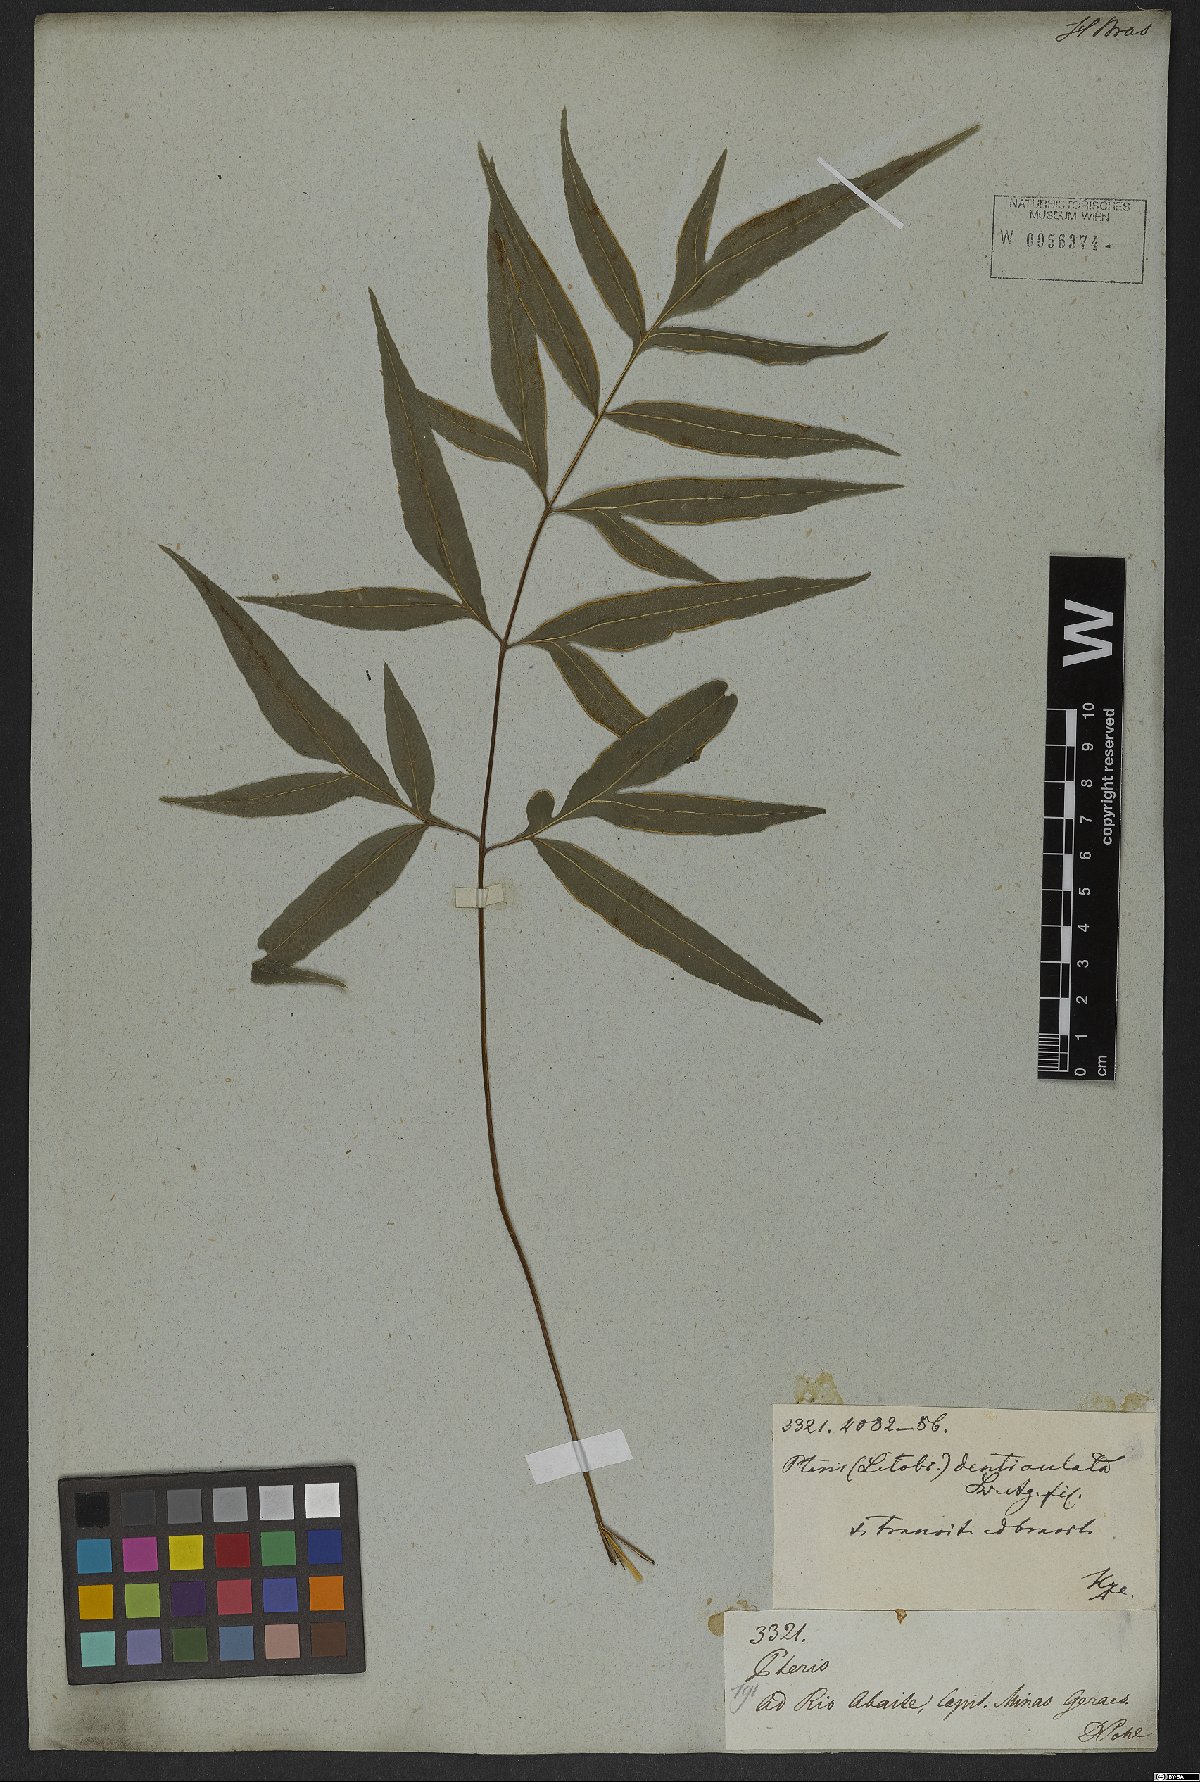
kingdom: Plantae
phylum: Tracheophyta
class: Polypodiopsida
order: Polypodiales
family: Pteridaceae
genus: Pteris
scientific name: Pteris denticulata
